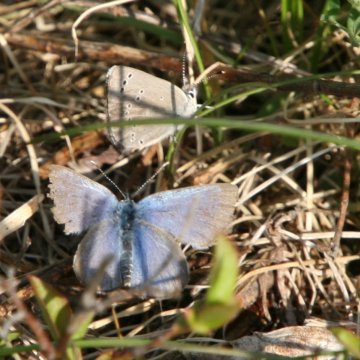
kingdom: Animalia
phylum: Arthropoda
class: Insecta
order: Lepidoptera
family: Lycaenidae
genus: Glaucopsyche
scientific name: Glaucopsyche lygdamus
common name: Silvery Blue
